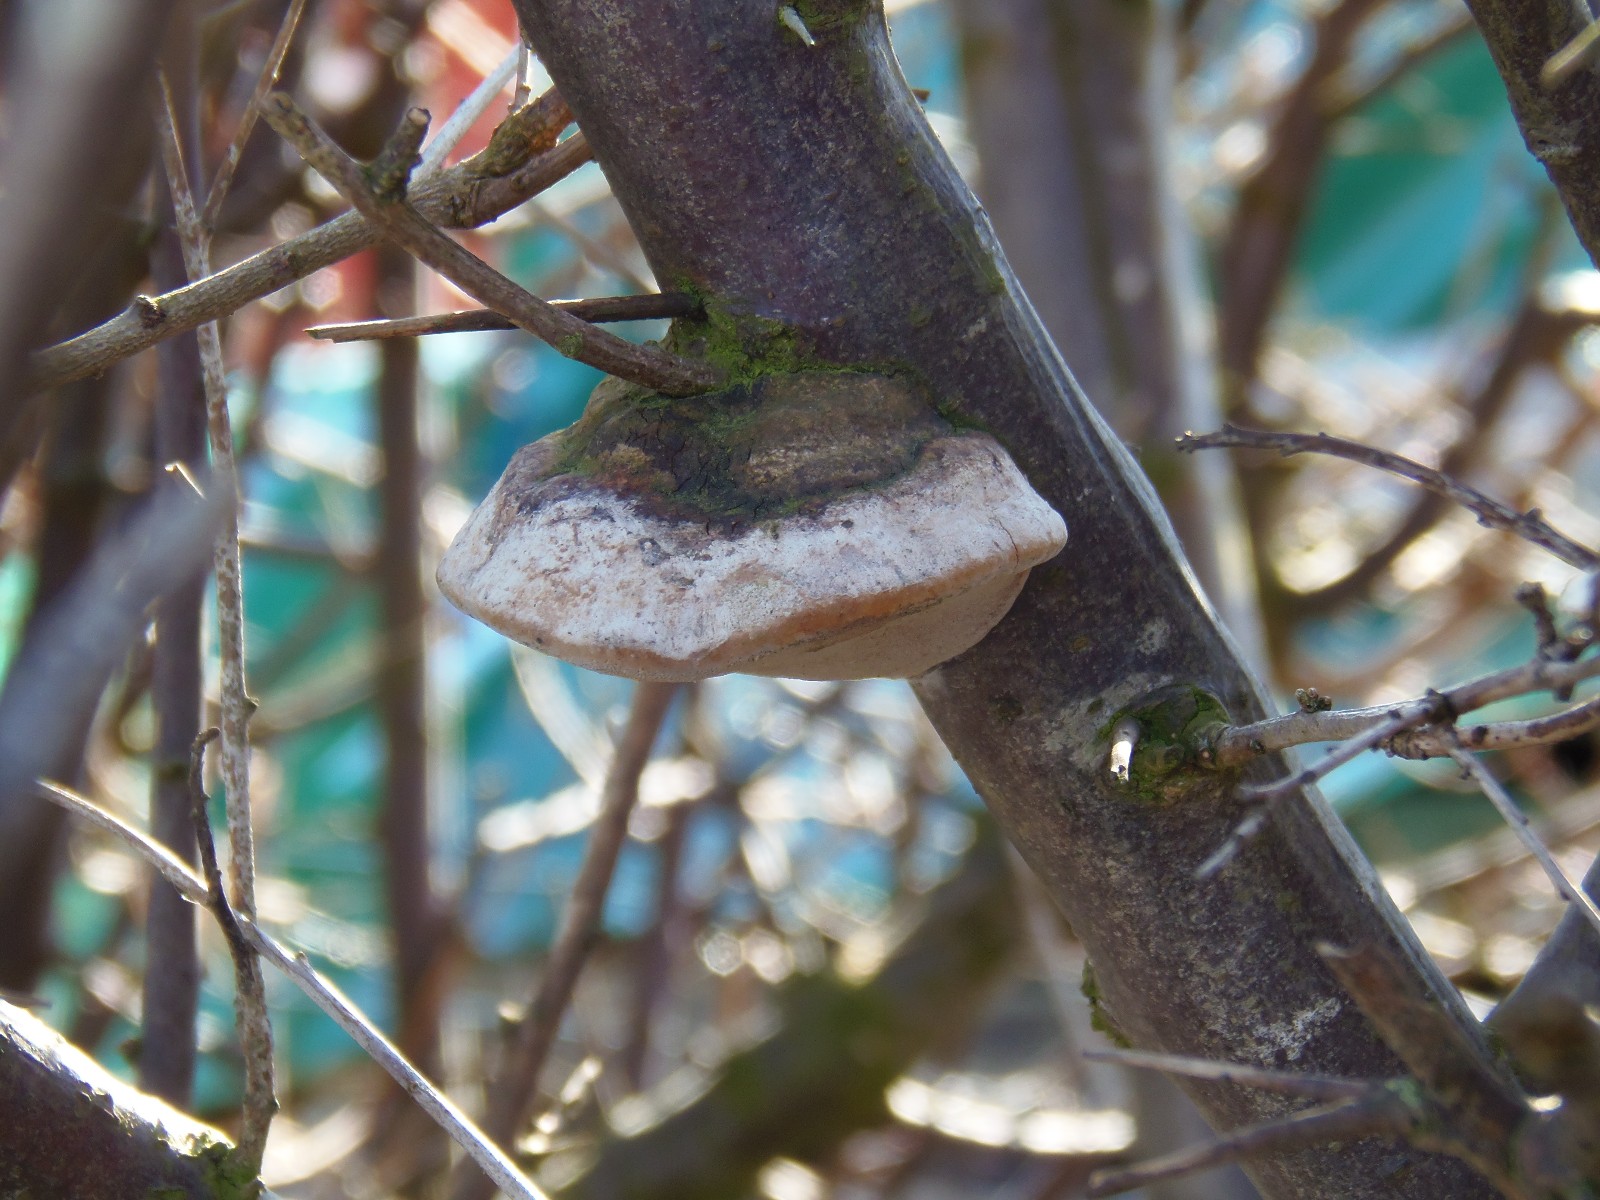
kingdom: Fungi
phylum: Basidiomycota
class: Agaricomycetes
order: Hymenochaetales
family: Hymenochaetaceae
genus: Phellinus
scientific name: Phellinus pomaceus
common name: blomme-ildporesvamp
